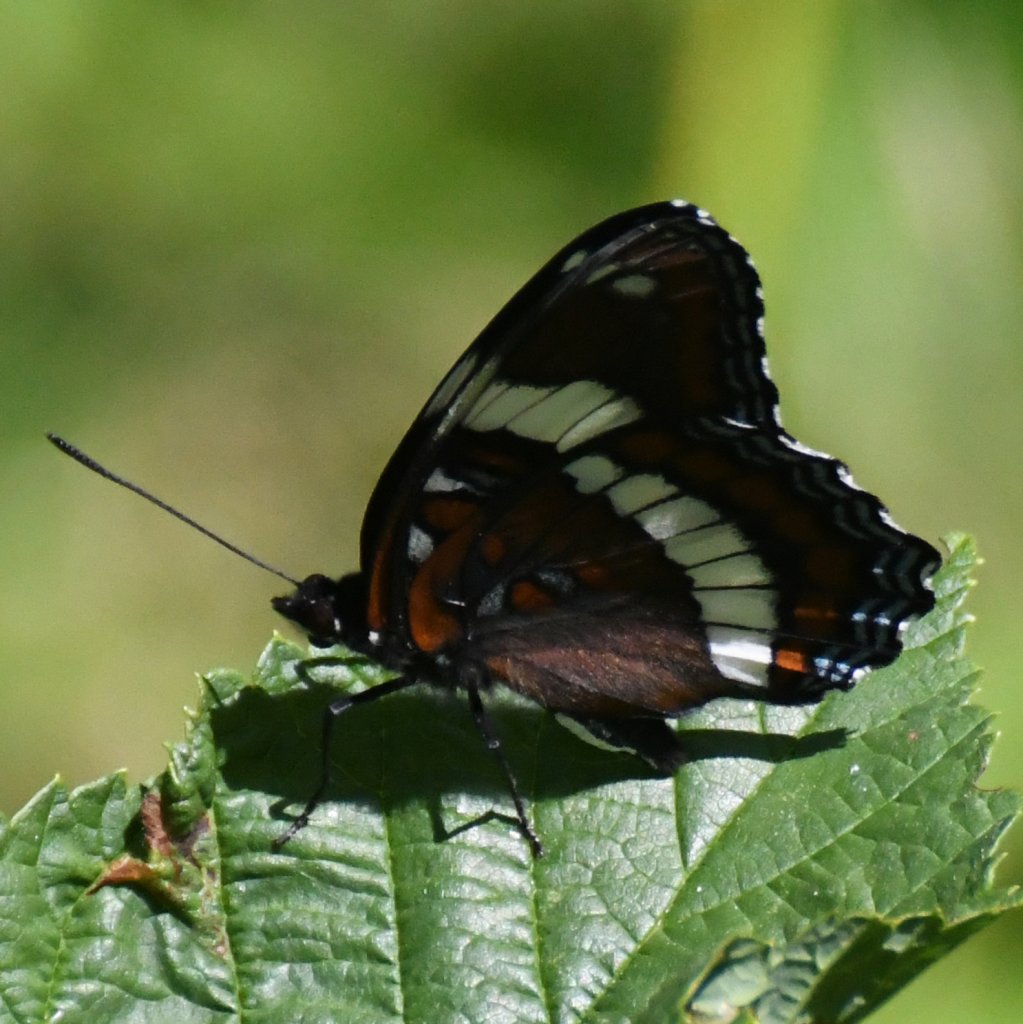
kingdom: Animalia
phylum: Arthropoda
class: Insecta
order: Lepidoptera
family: Nymphalidae
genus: Limenitis
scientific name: Limenitis arthemis
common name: Red-spotted Admiral
